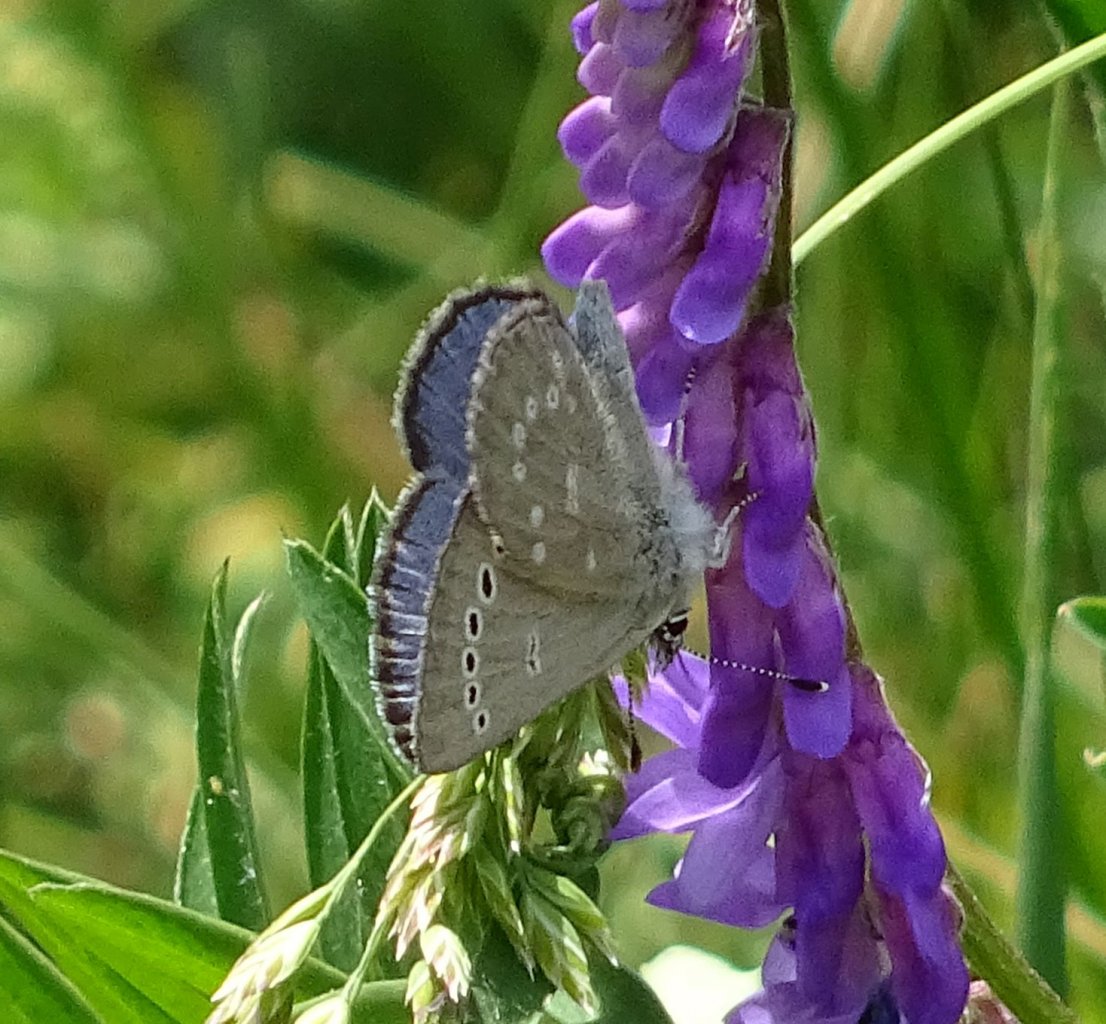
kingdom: Animalia
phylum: Arthropoda
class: Insecta
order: Lepidoptera
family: Lycaenidae
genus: Glaucopsyche
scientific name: Glaucopsyche lygdamus
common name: Silvery Blue
